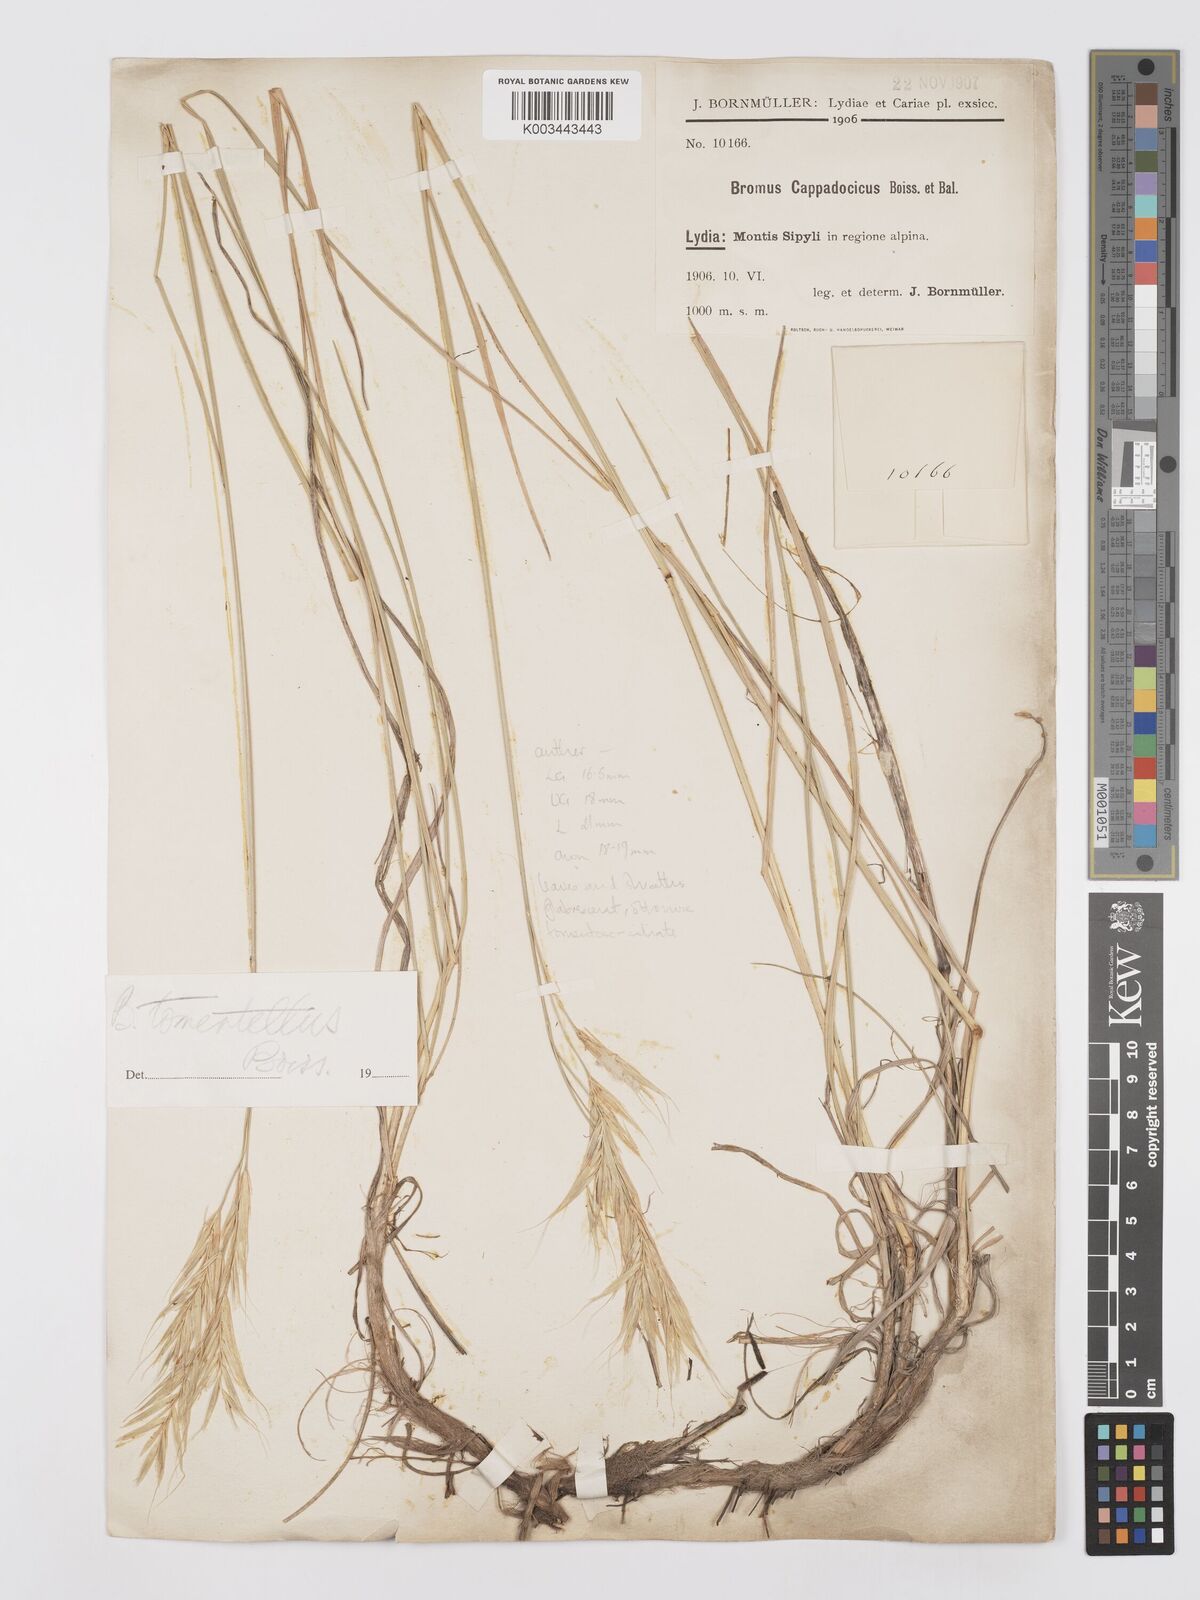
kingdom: Plantae
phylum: Tracheophyta
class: Liliopsida
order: Poales
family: Poaceae
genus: Bromus
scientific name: Bromus tomentellus
